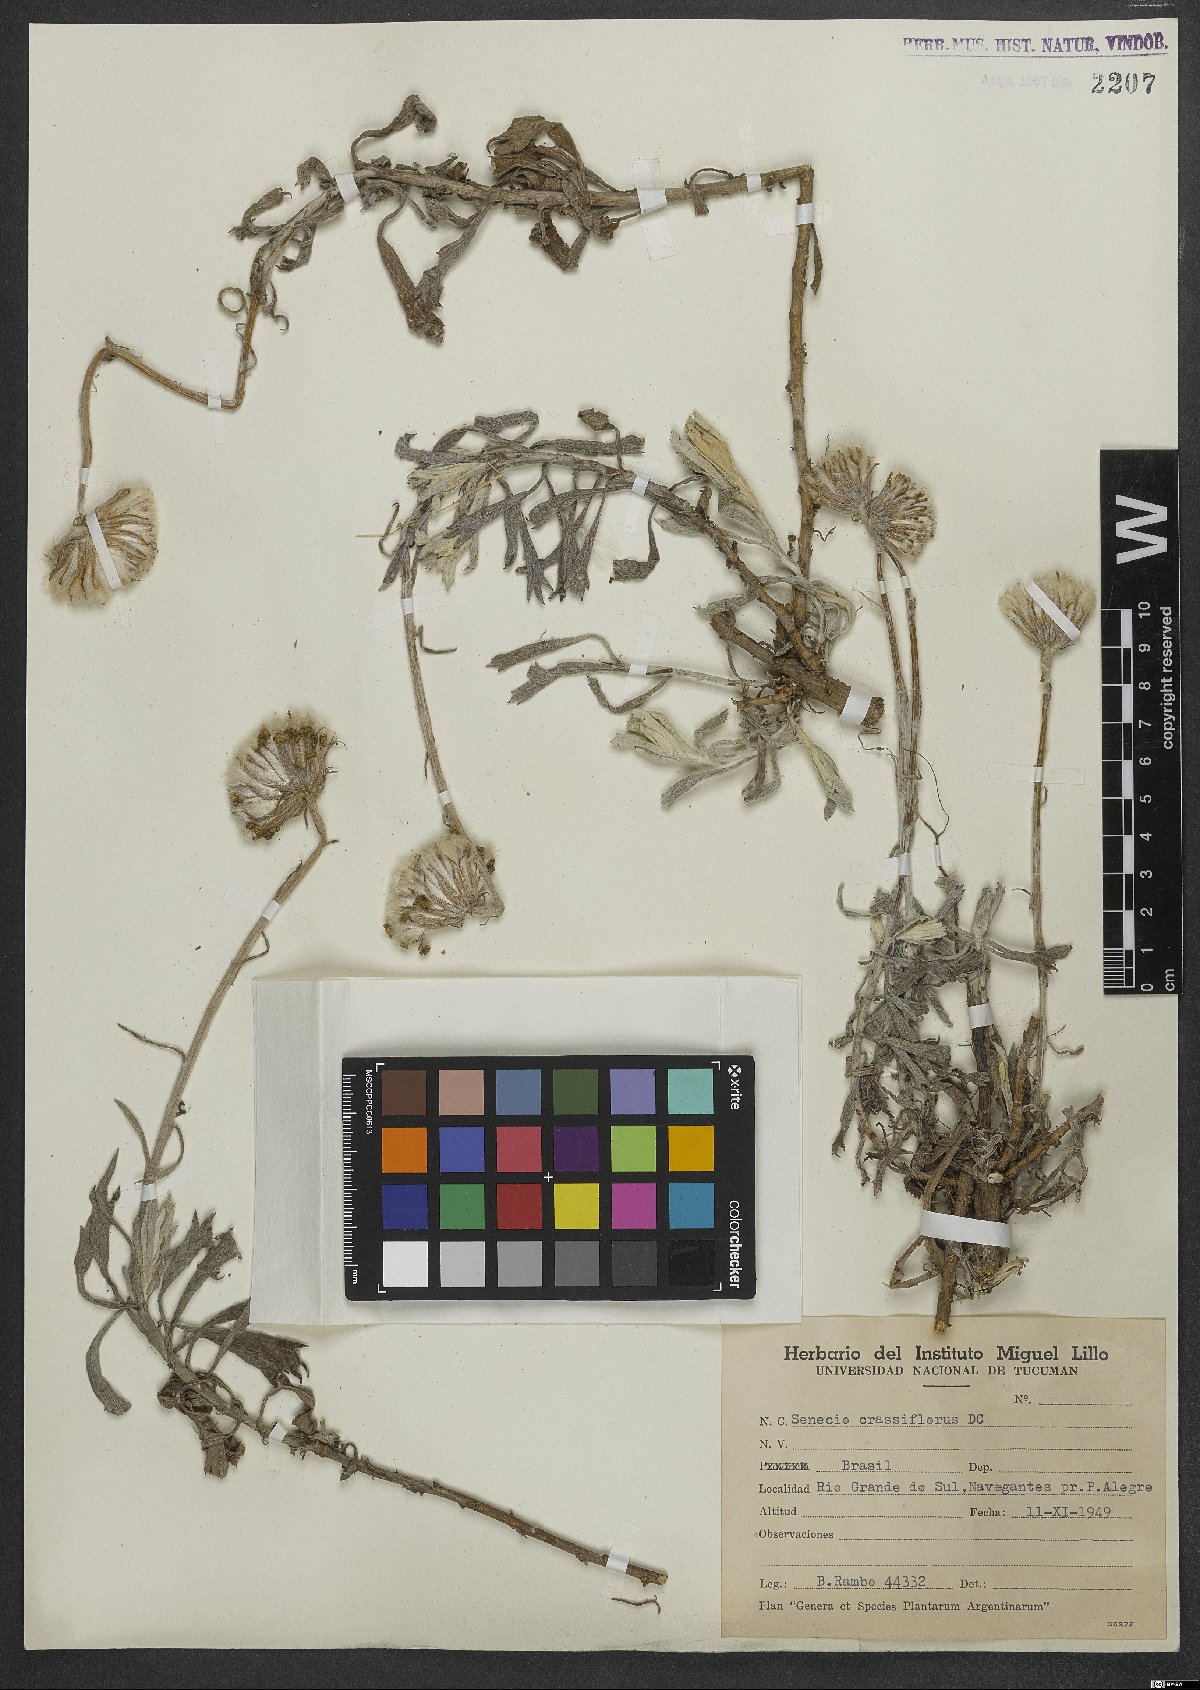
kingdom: Plantae
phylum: Tracheophyta
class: Magnoliopsida
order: Asterales
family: Asteraceae
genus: Senecio
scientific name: Senecio crassiflorus
